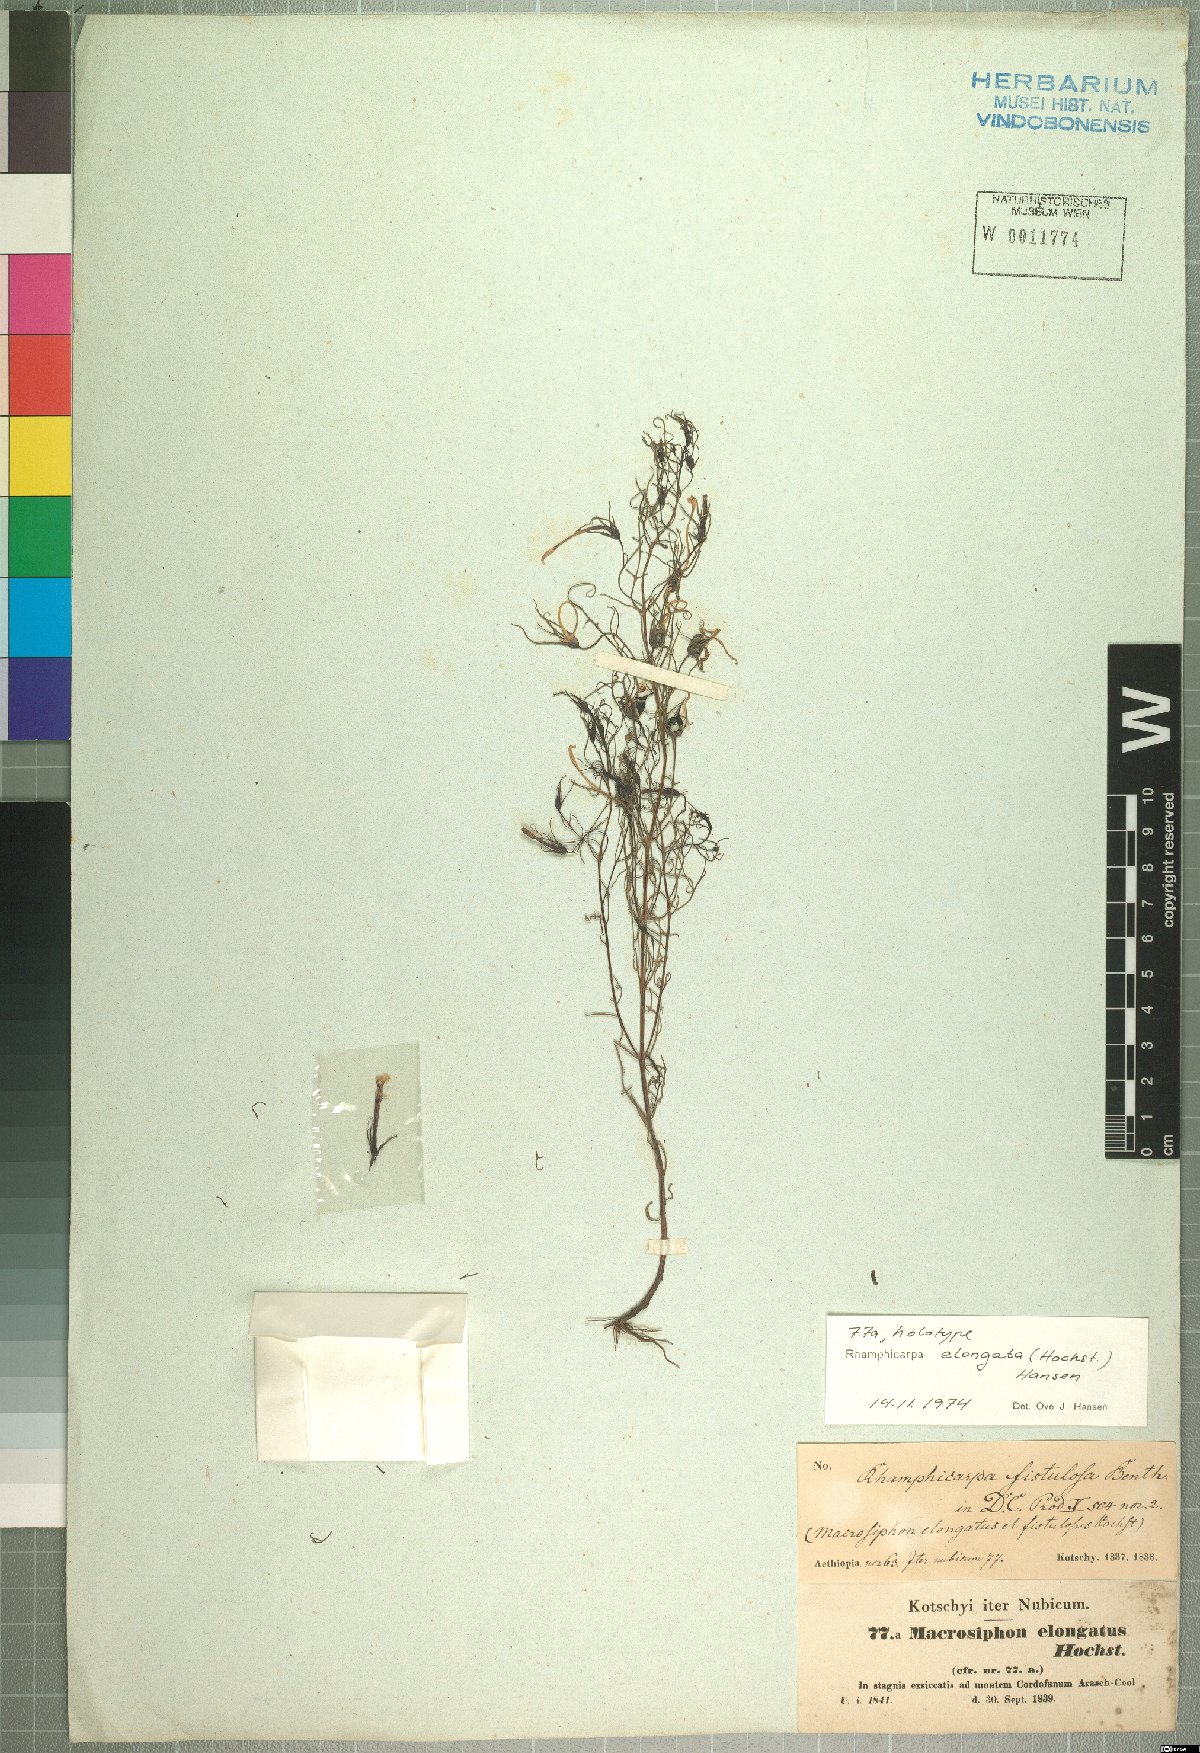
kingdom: Plantae
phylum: Tracheophyta
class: Magnoliopsida
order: Lamiales
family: Orobanchaceae
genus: Rhamphicarpa
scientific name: Rhamphicarpa elongata
